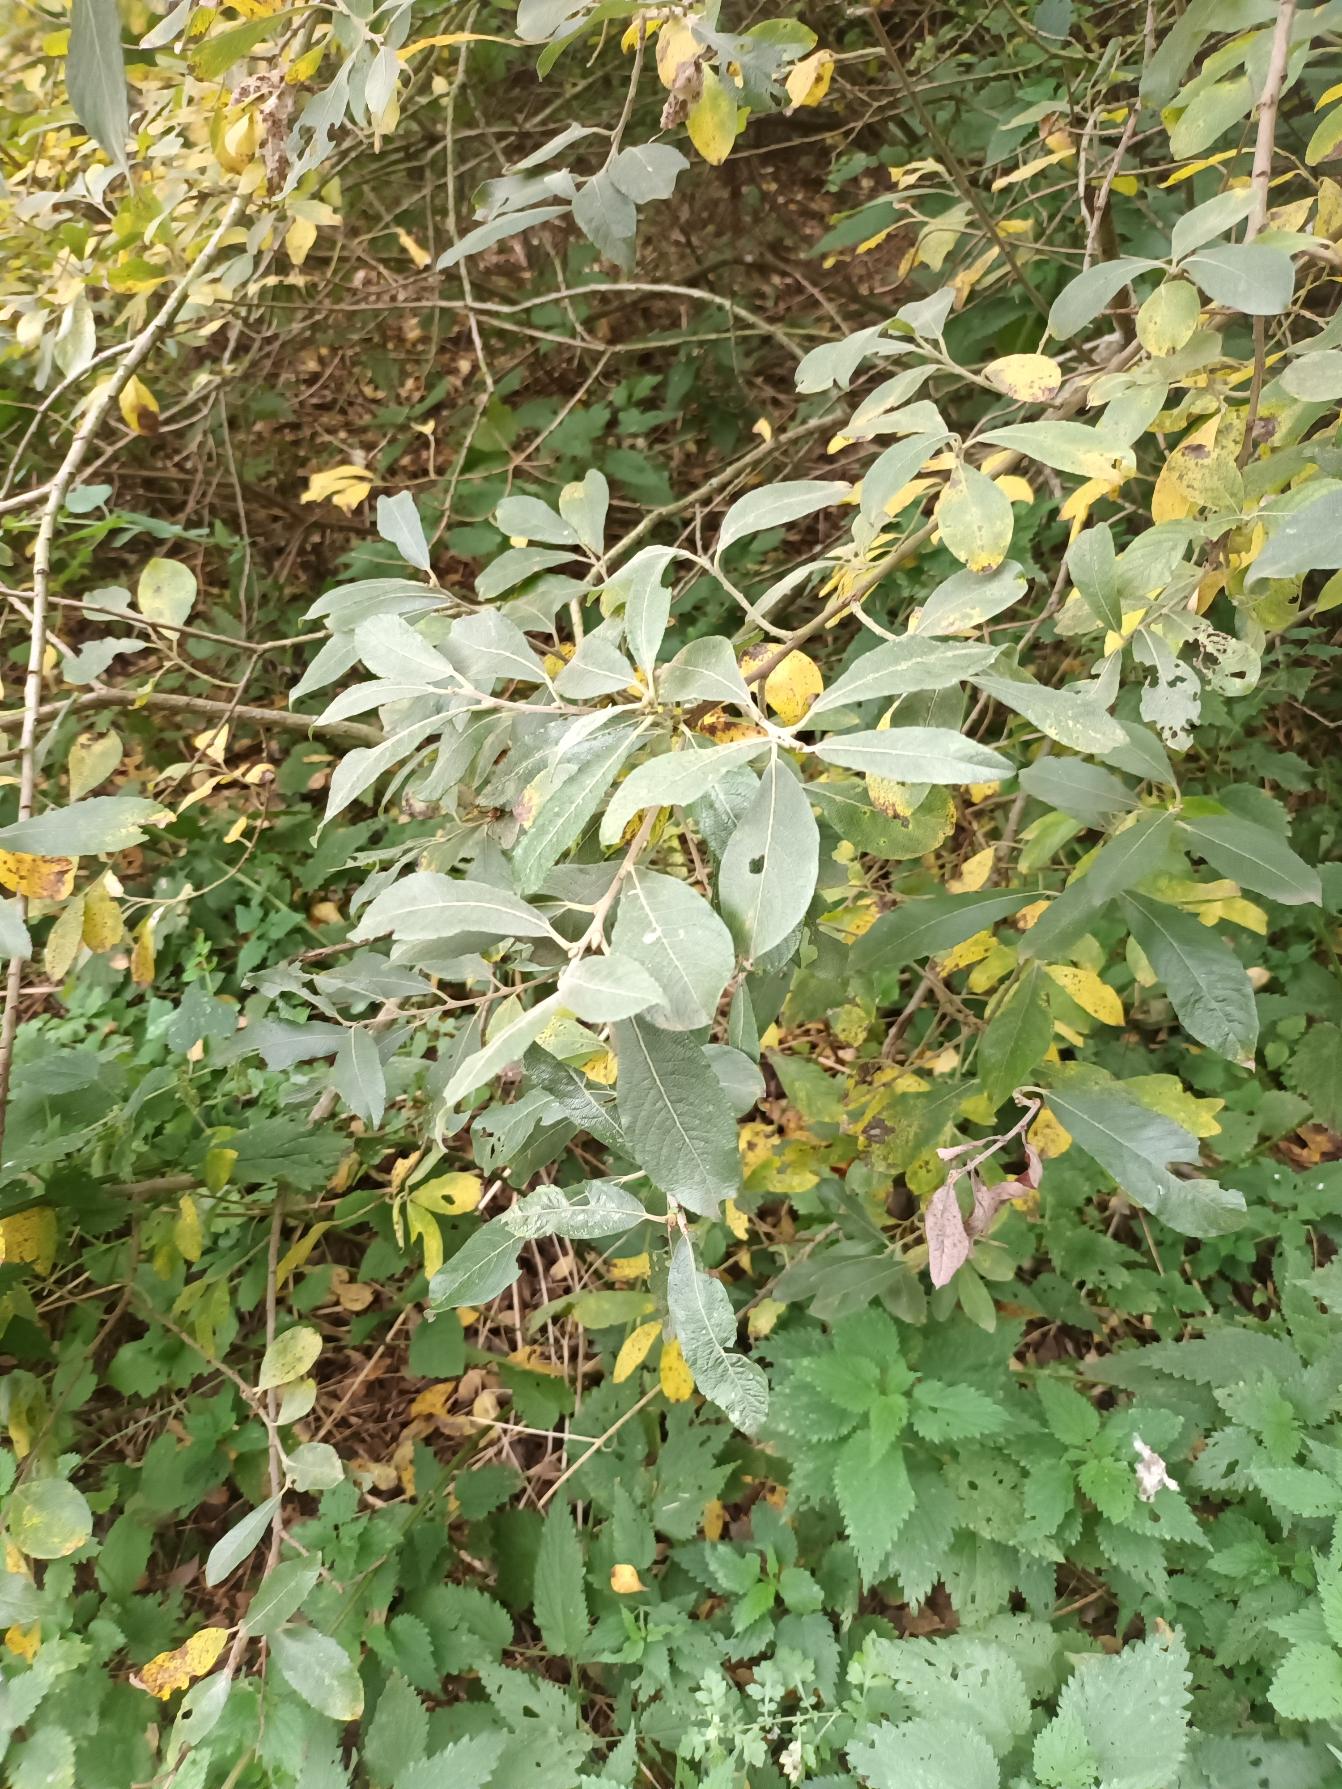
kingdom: Plantae
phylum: Tracheophyta
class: Magnoliopsida
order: Malpighiales
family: Salicaceae
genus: Salix
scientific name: Salix cinerea
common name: Grå-pil
